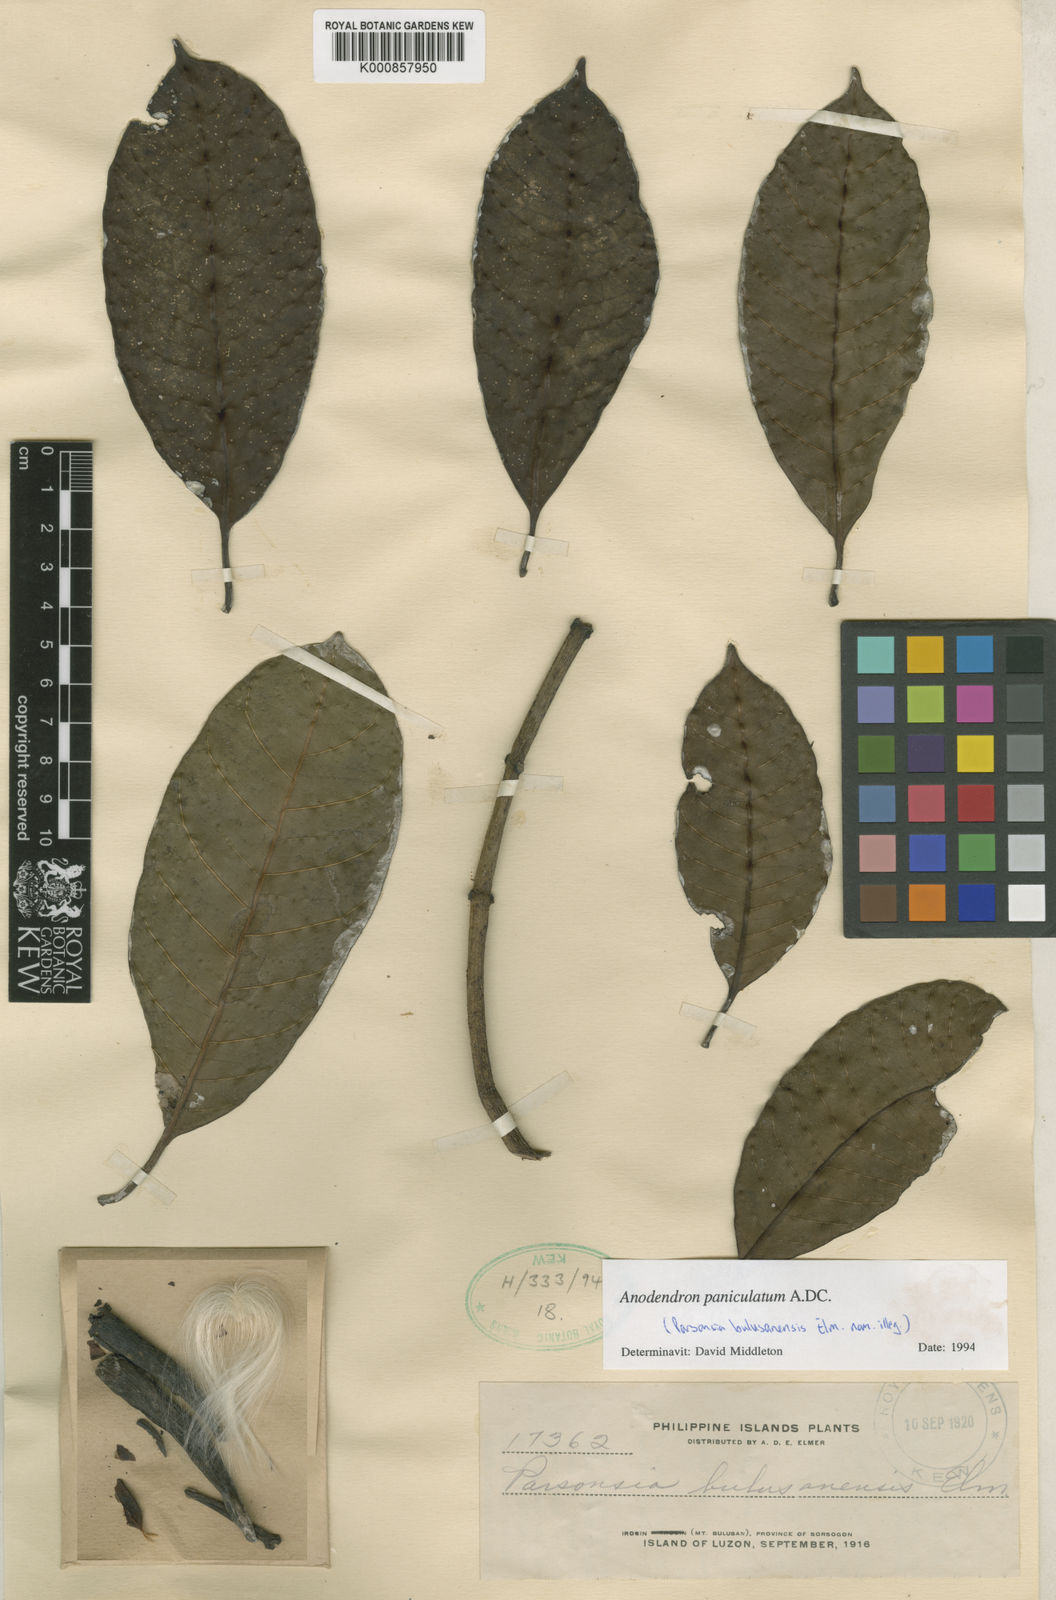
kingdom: Plantae
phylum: Tracheophyta
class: Magnoliopsida
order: Gentianales
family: Apocynaceae
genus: Anodendron
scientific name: Anodendron parviflorum
